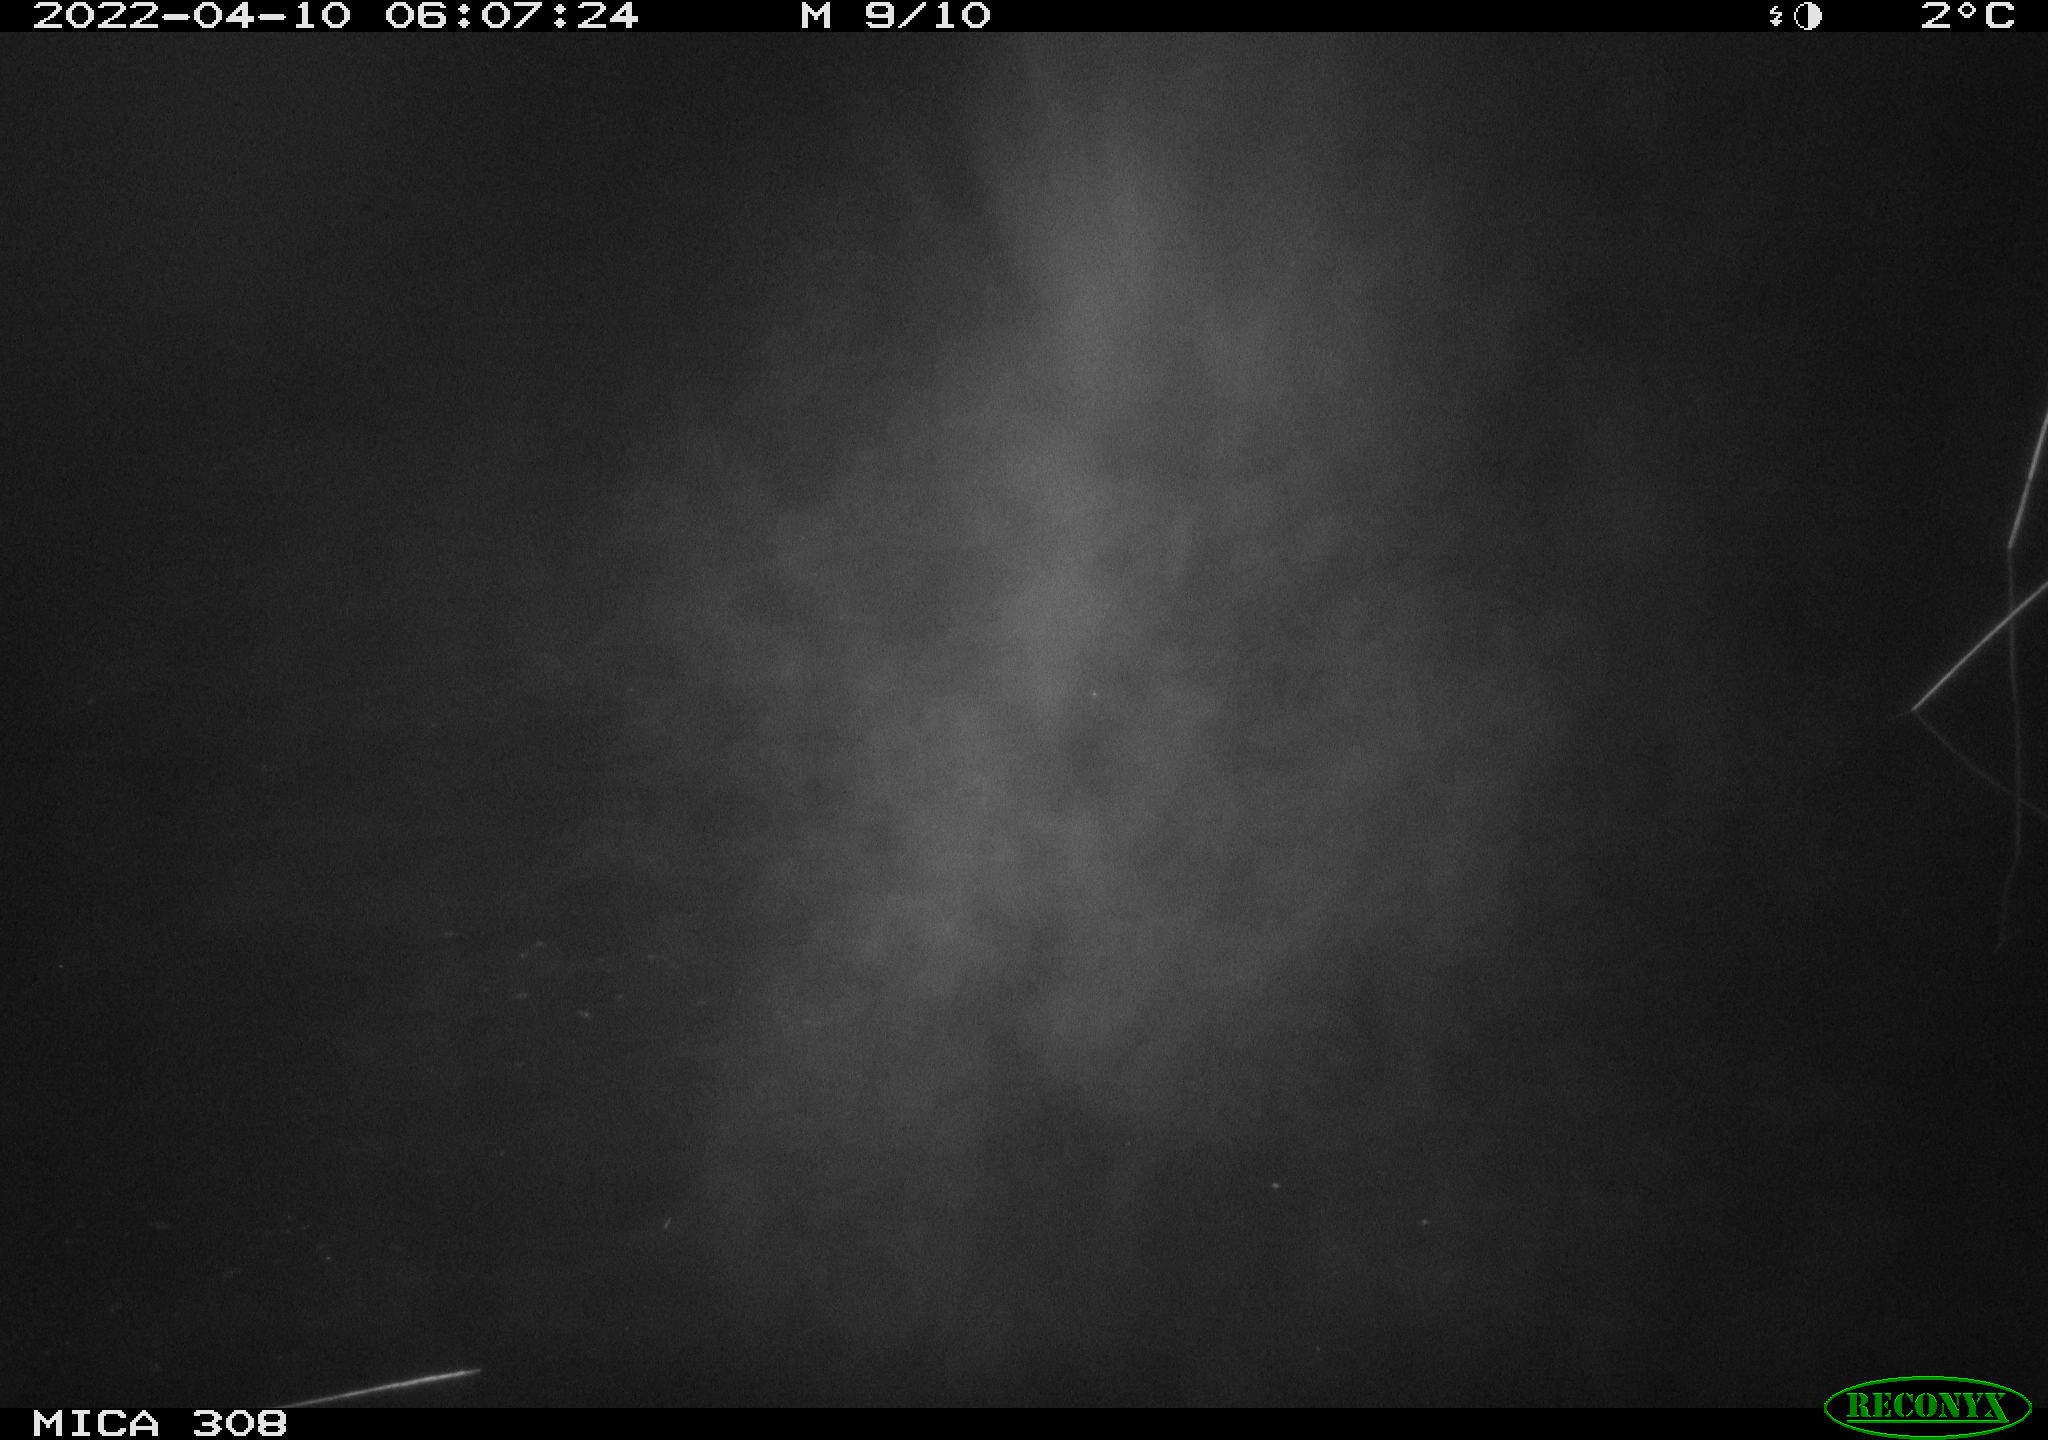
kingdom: Animalia
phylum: Chordata
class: Aves
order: Gruiformes
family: Rallidae
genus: Fulica
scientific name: Fulica atra
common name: Eurasian coot
